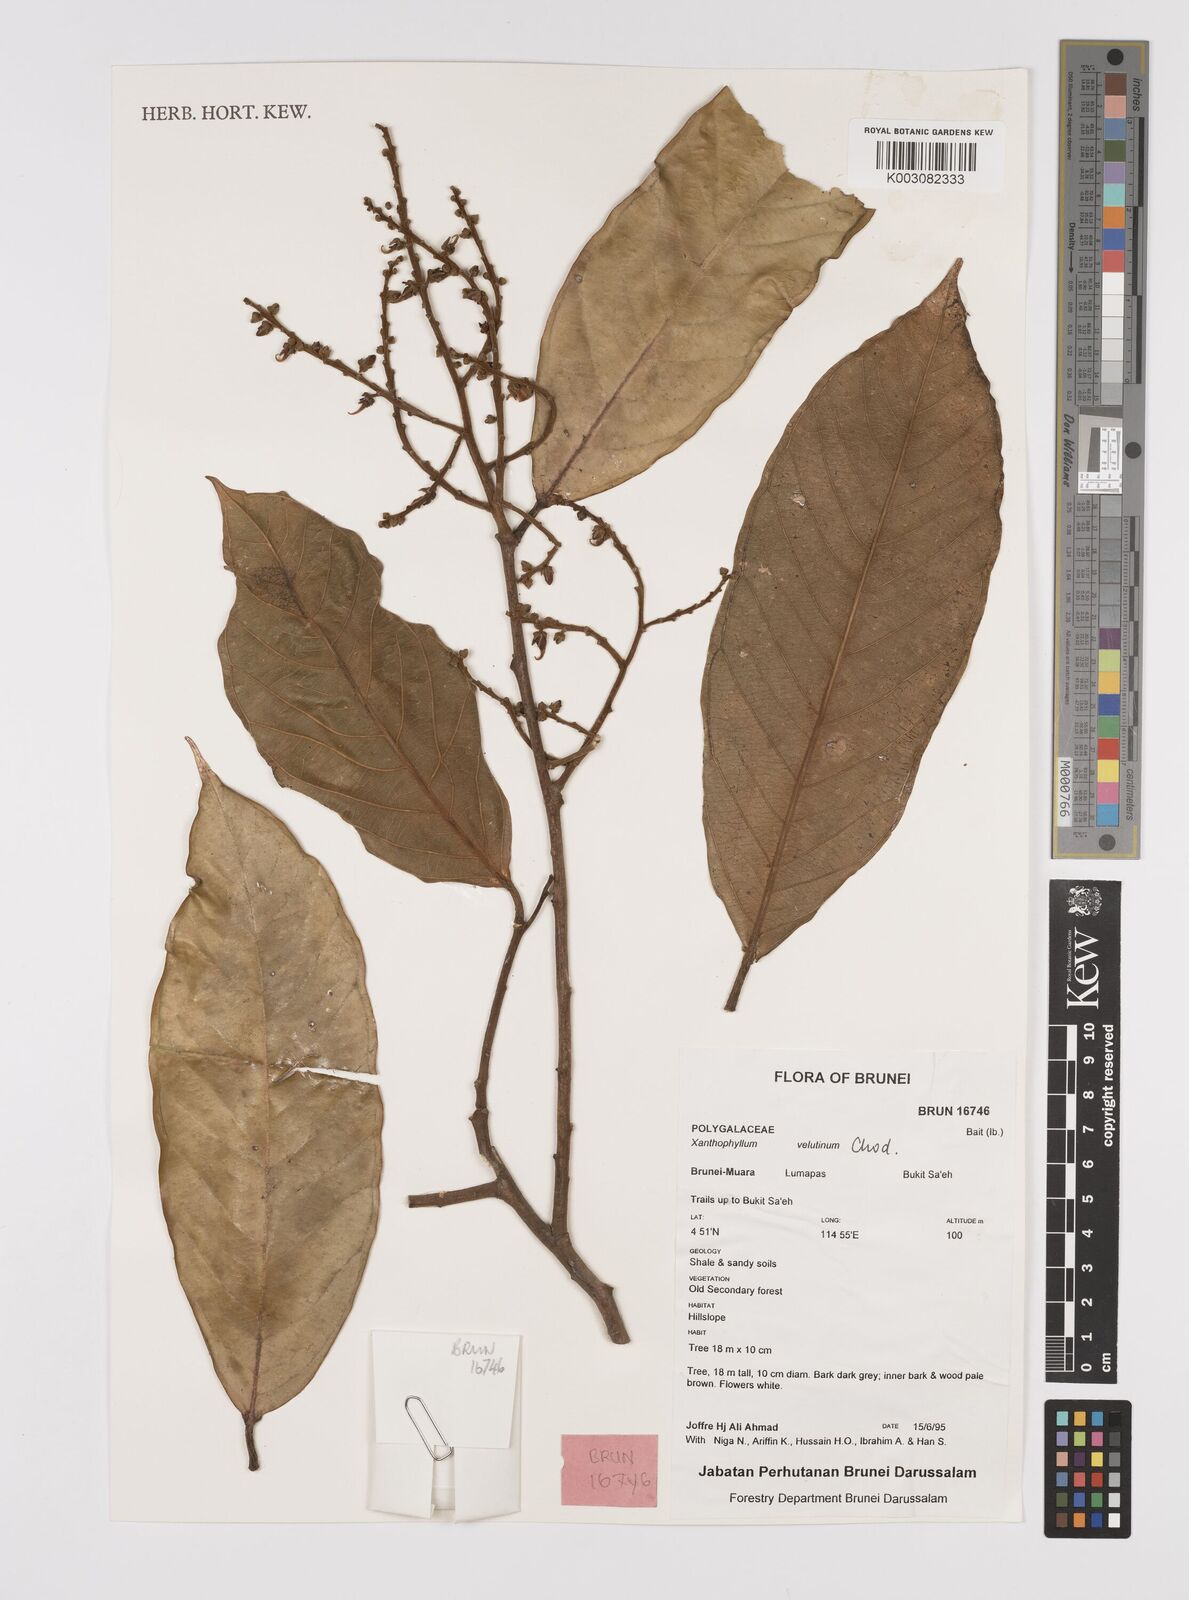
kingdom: Plantae
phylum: Tracheophyta
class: Magnoliopsida
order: Fabales
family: Polygalaceae
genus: Xanthophyllum
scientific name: Xanthophyllum velutinum
